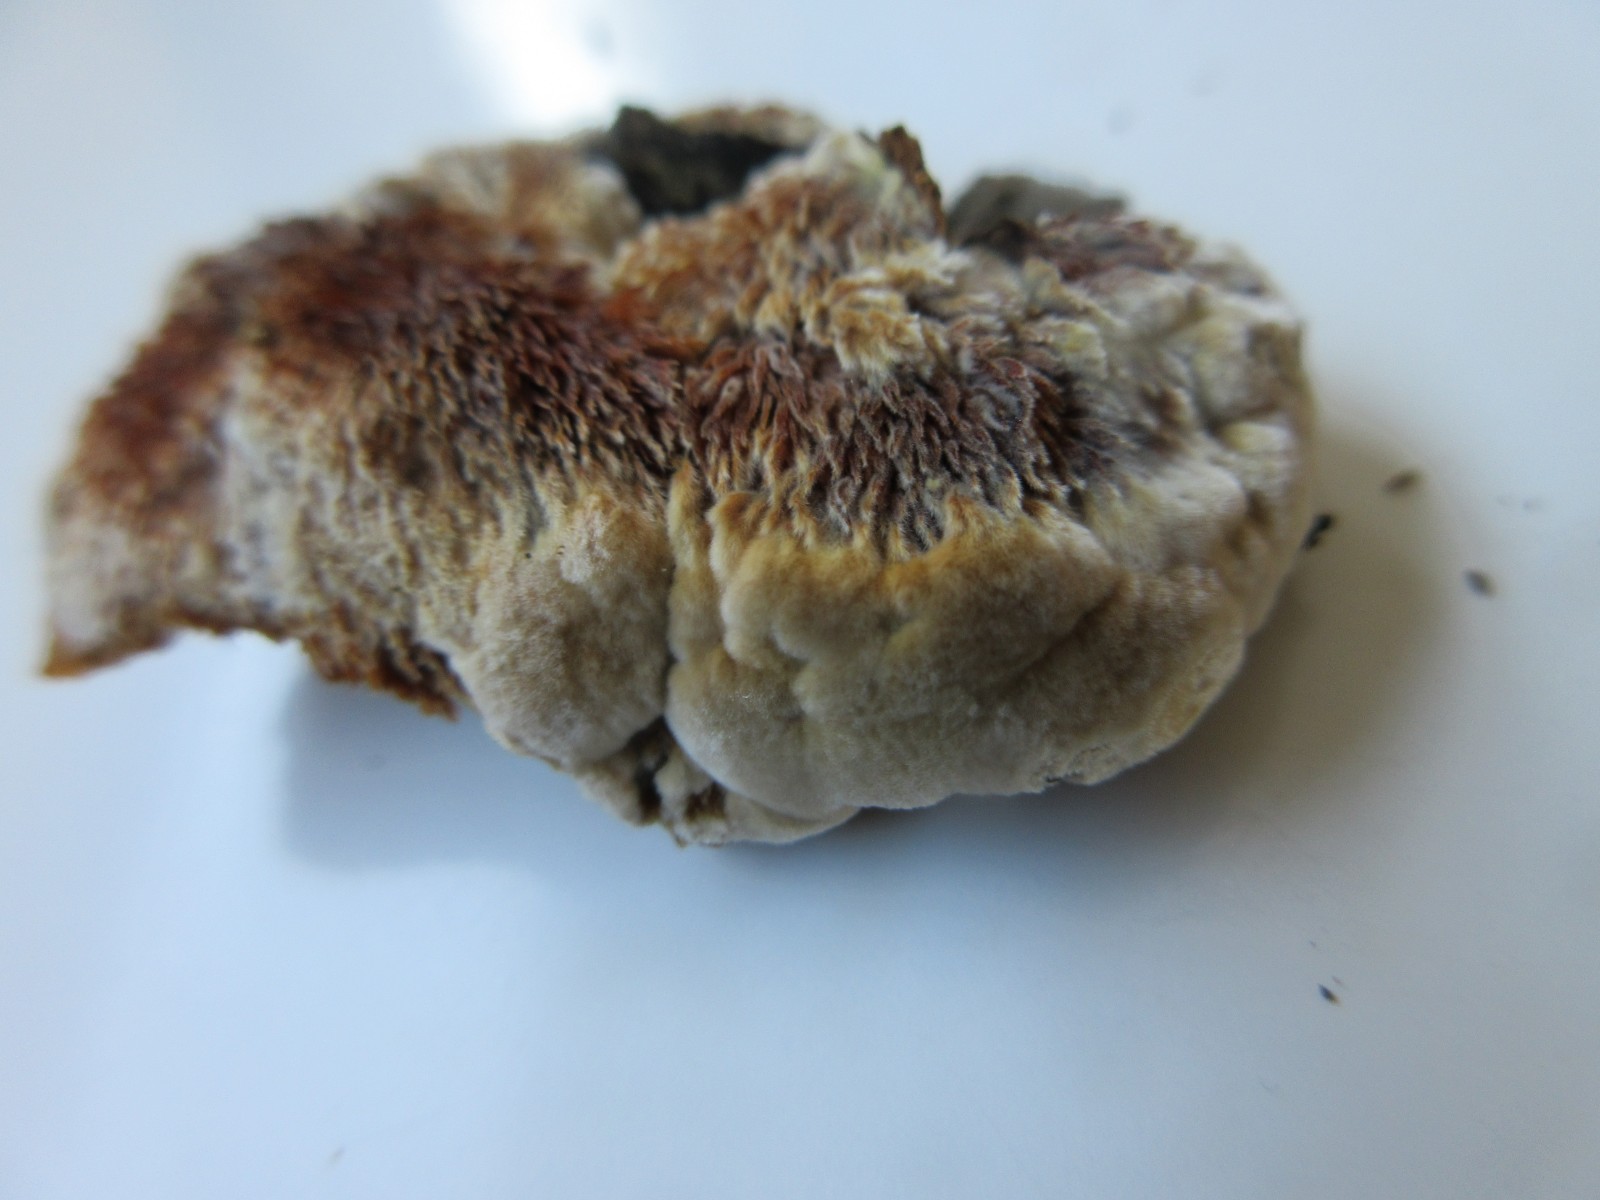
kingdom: Fungi
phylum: Basidiomycota
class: Agaricomycetes
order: Hymenochaetales
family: Hymenochaetaceae
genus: Inonotus
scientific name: Inonotus cuticularis
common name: kroghåret spejlporesvamp
